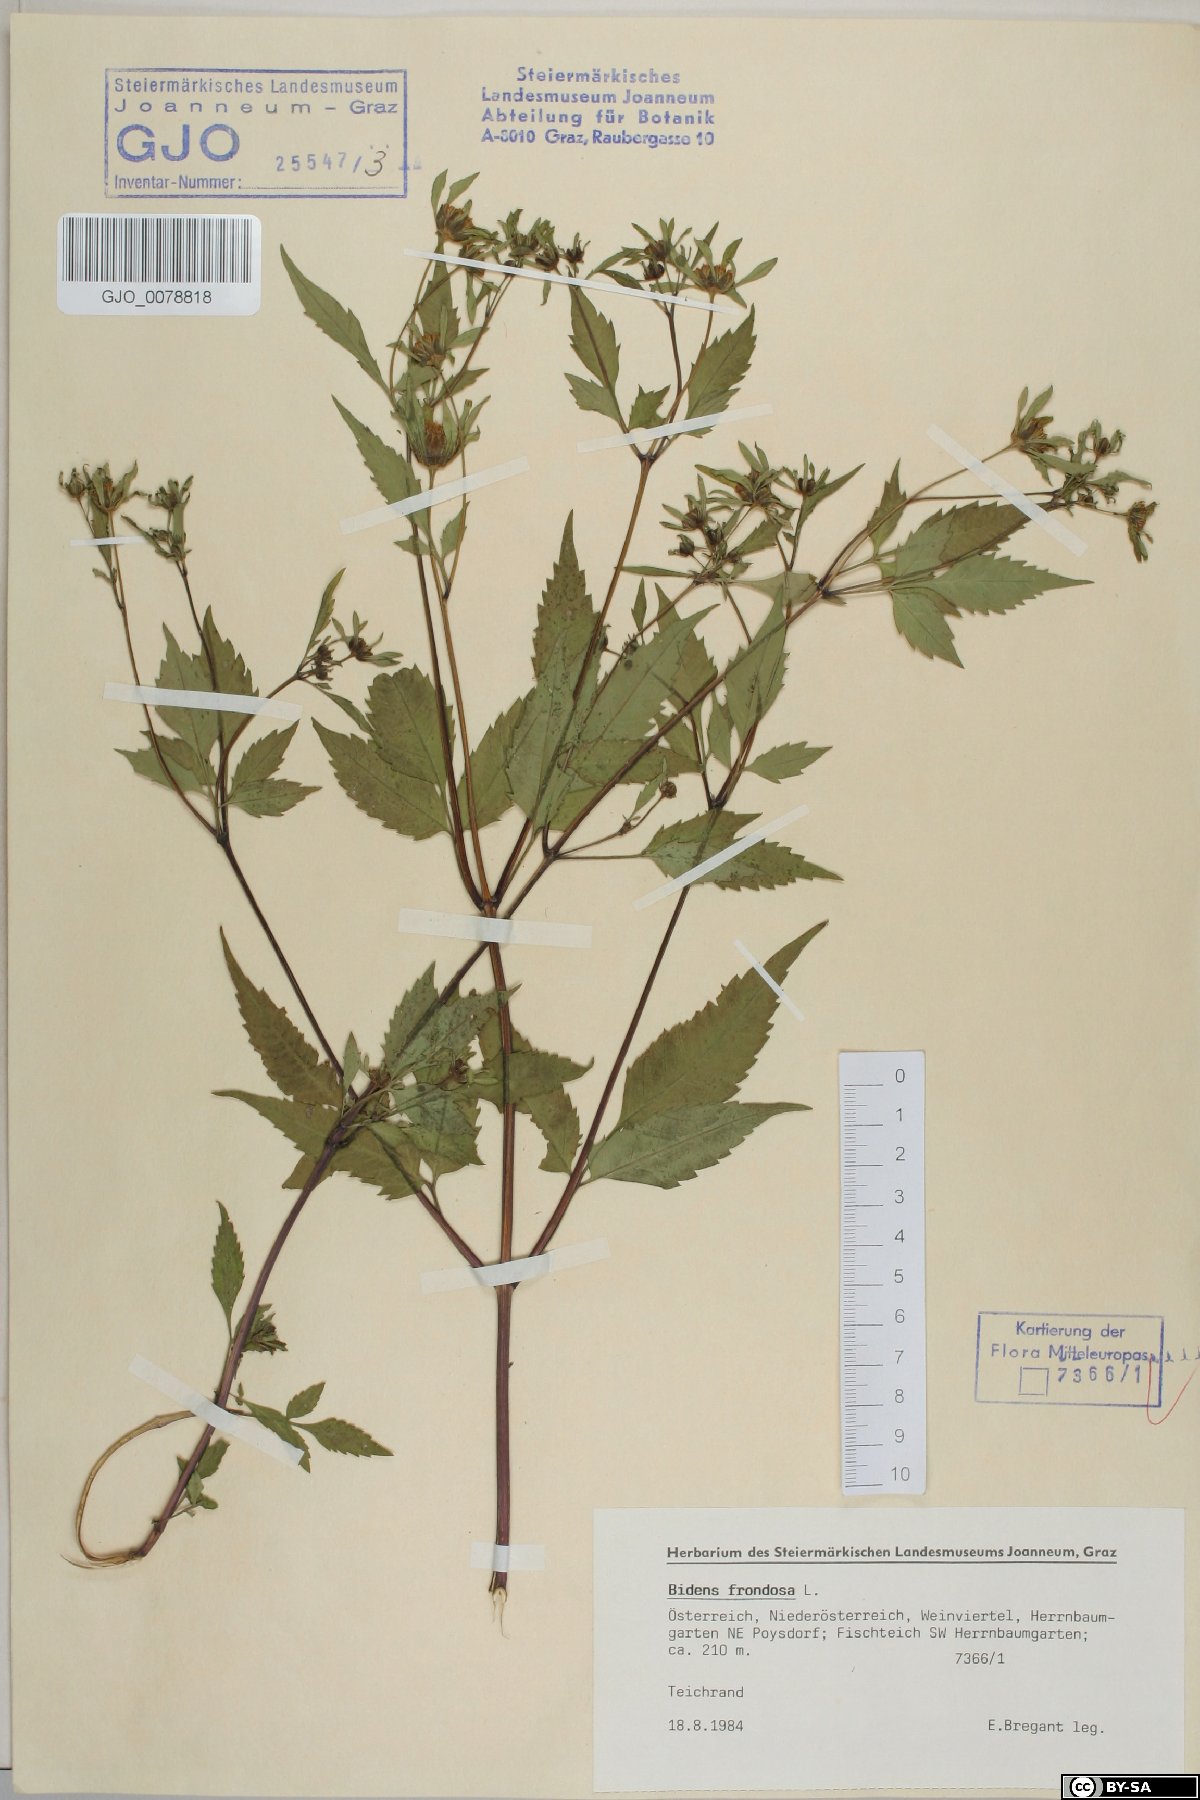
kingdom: Plantae
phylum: Tracheophyta
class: Magnoliopsida
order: Asterales
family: Asteraceae
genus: Bidens
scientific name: Bidens frondosa
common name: Beggarticks
